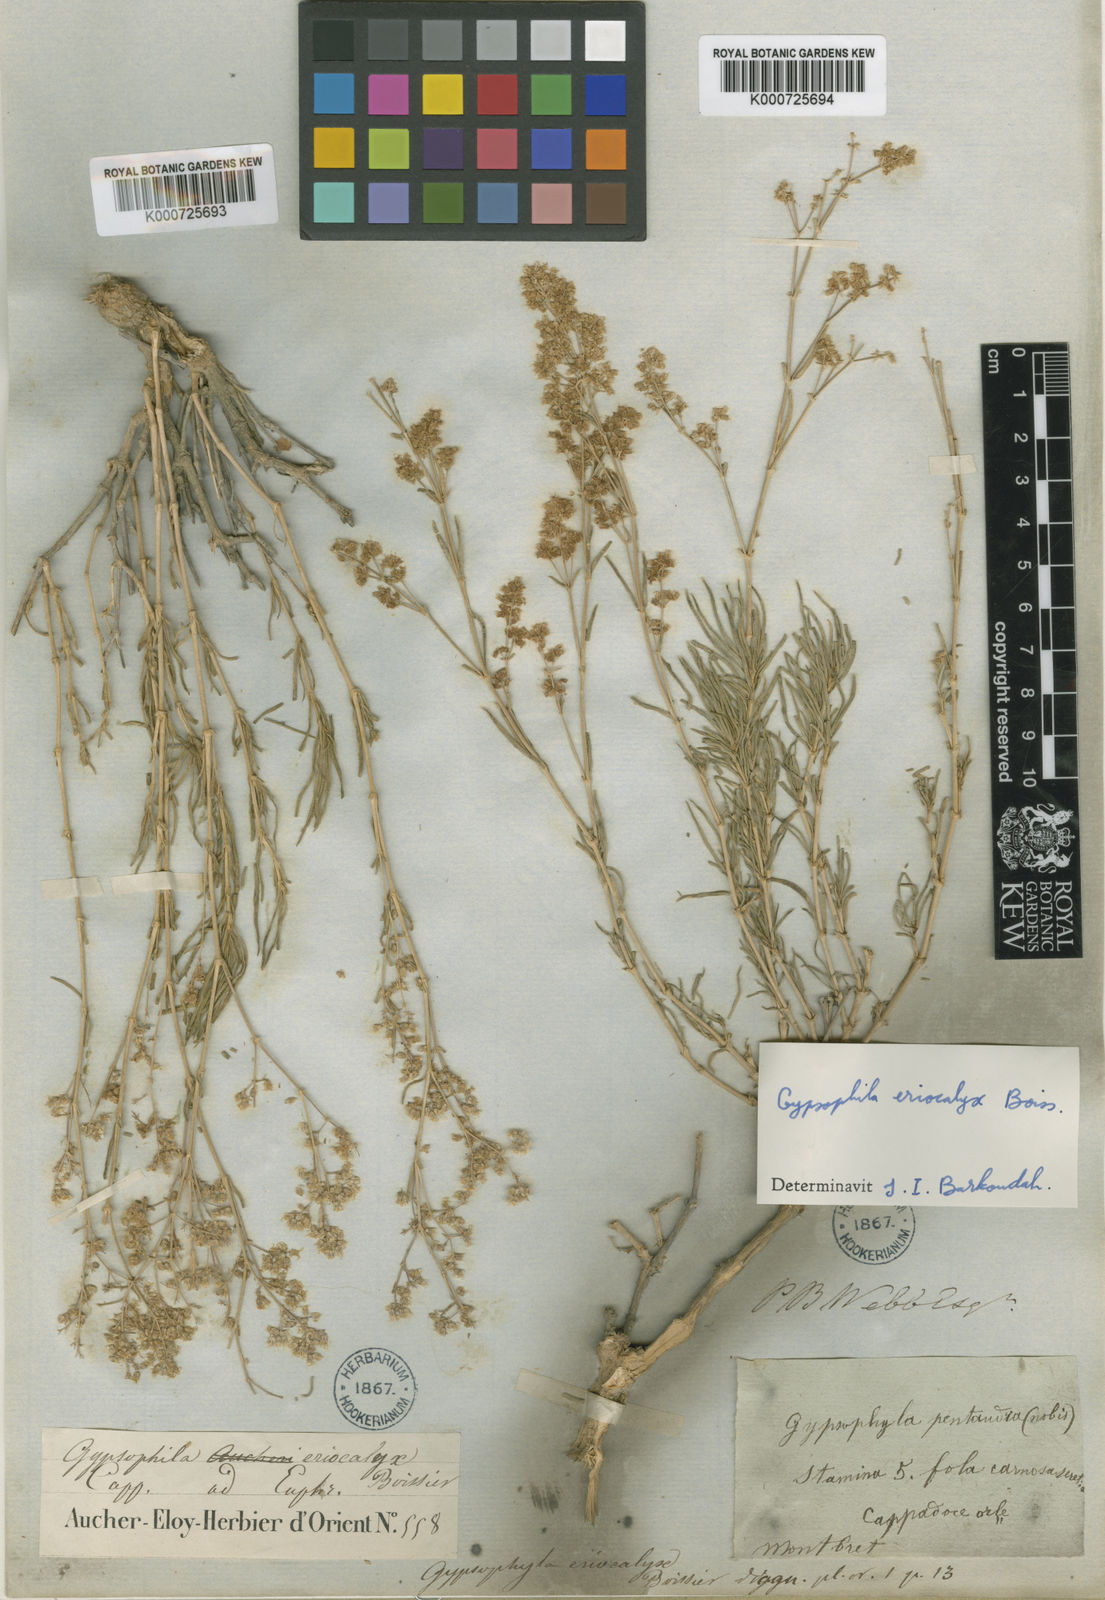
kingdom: Plantae
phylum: Tracheophyta
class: Magnoliopsida
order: Caryophyllales
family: Caryophyllaceae
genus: Gypsophila
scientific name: Gypsophila eriocalyx
